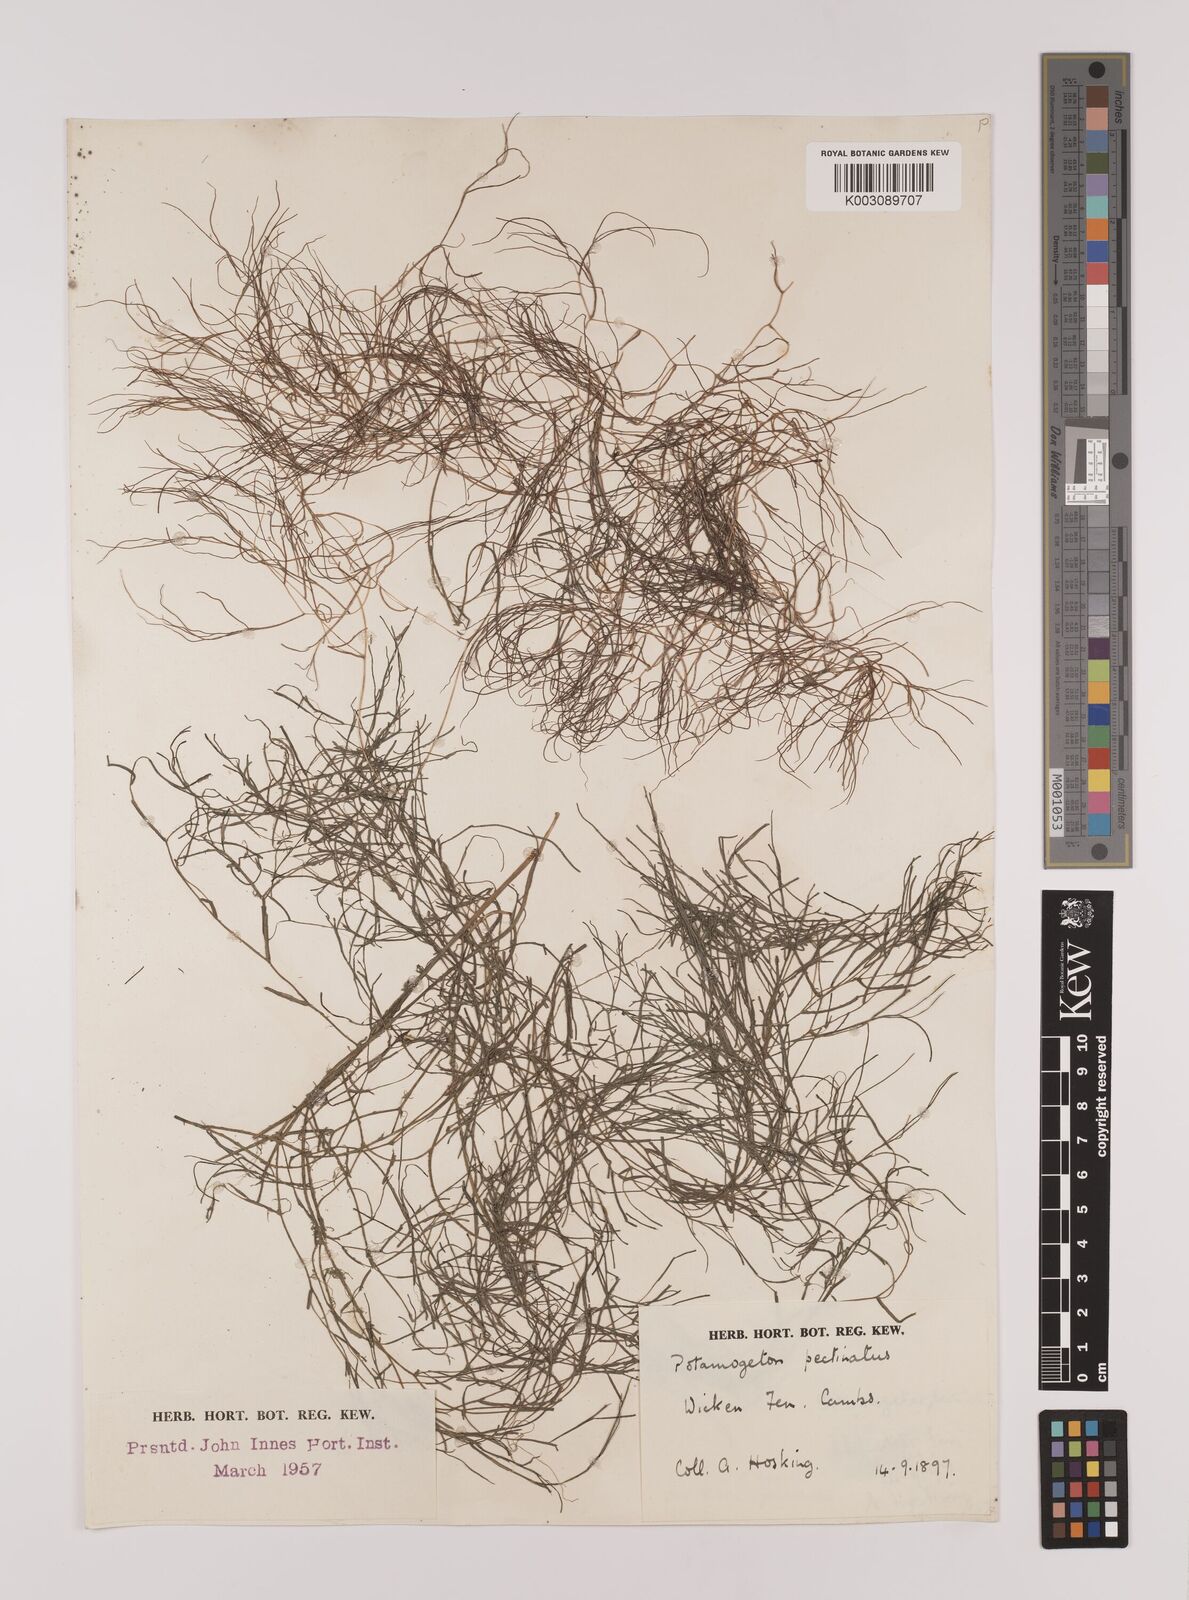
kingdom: Plantae
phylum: Tracheophyta
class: Liliopsida
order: Alismatales
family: Potamogetonaceae
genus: Stuckenia
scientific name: Stuckenia pectinata
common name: Sago pondweed
